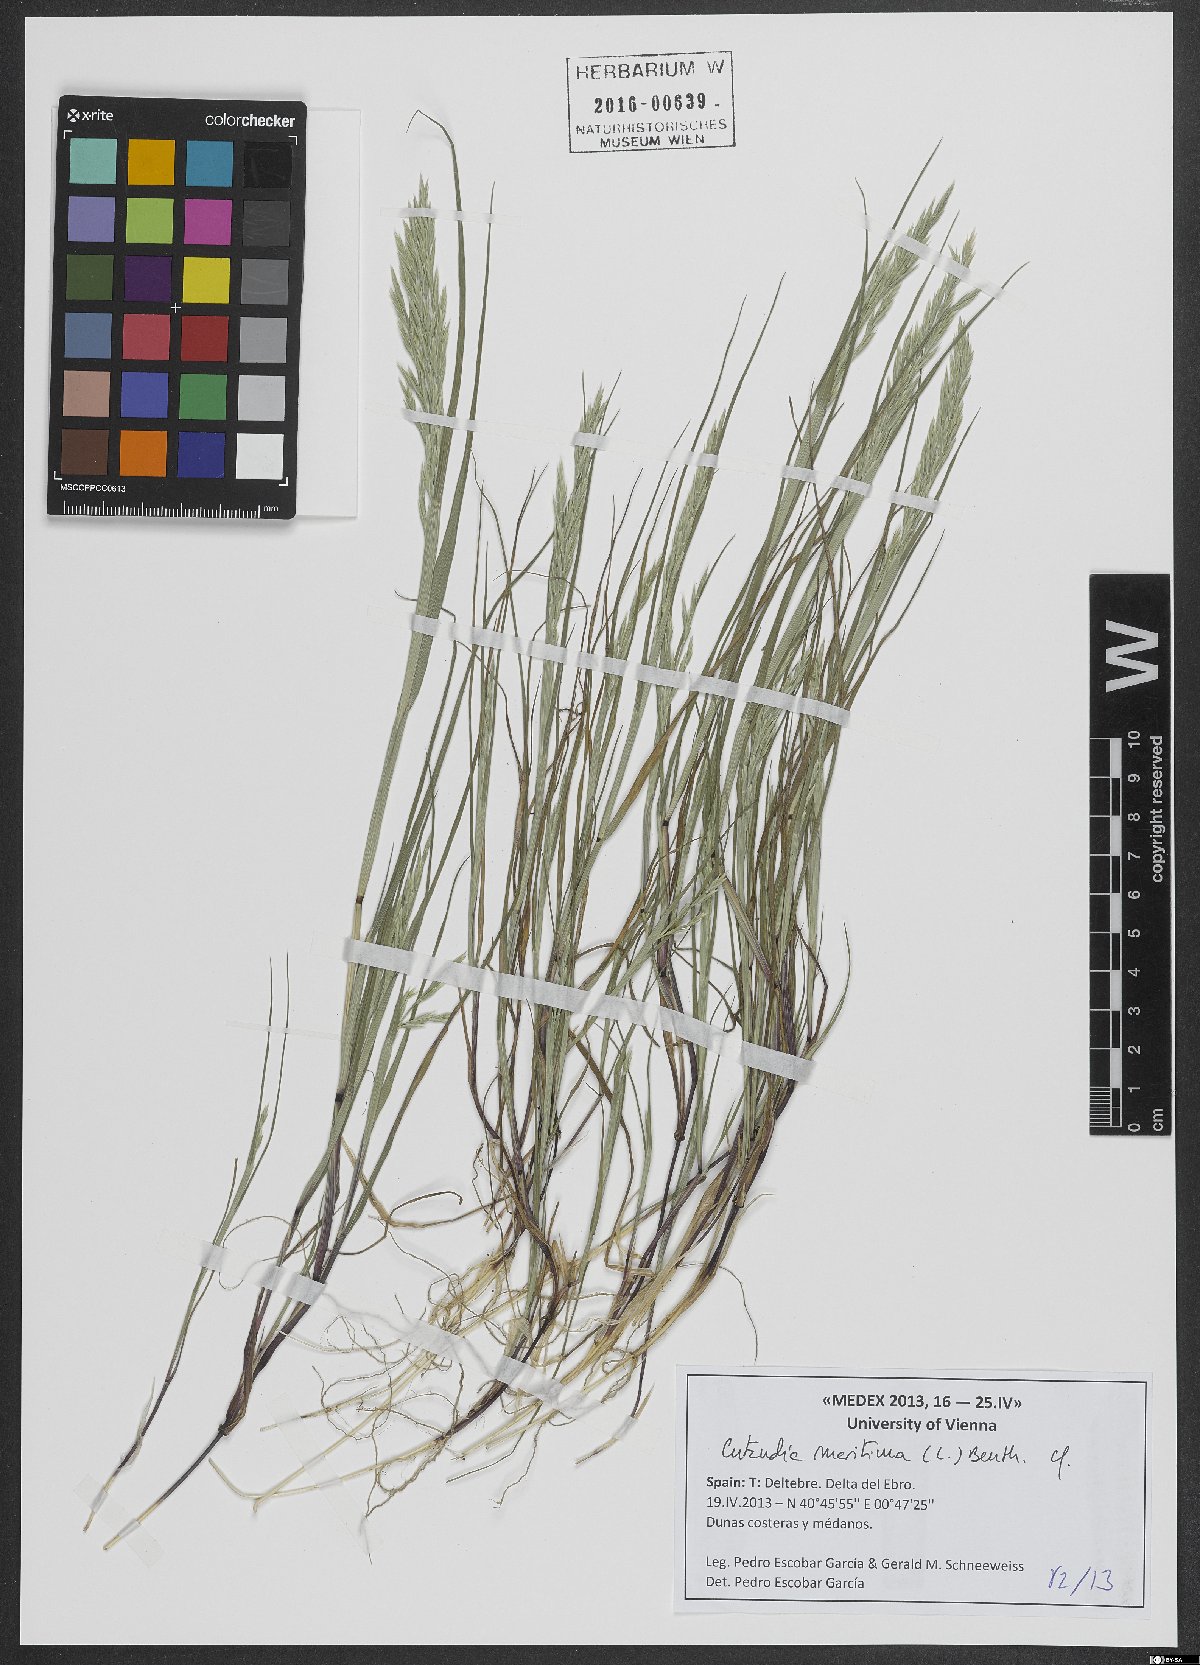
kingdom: Plantae
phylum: Tracheophyta
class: Liliopsida
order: Poales
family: Poaceae
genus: Cutandia
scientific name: Cutandia maritima
